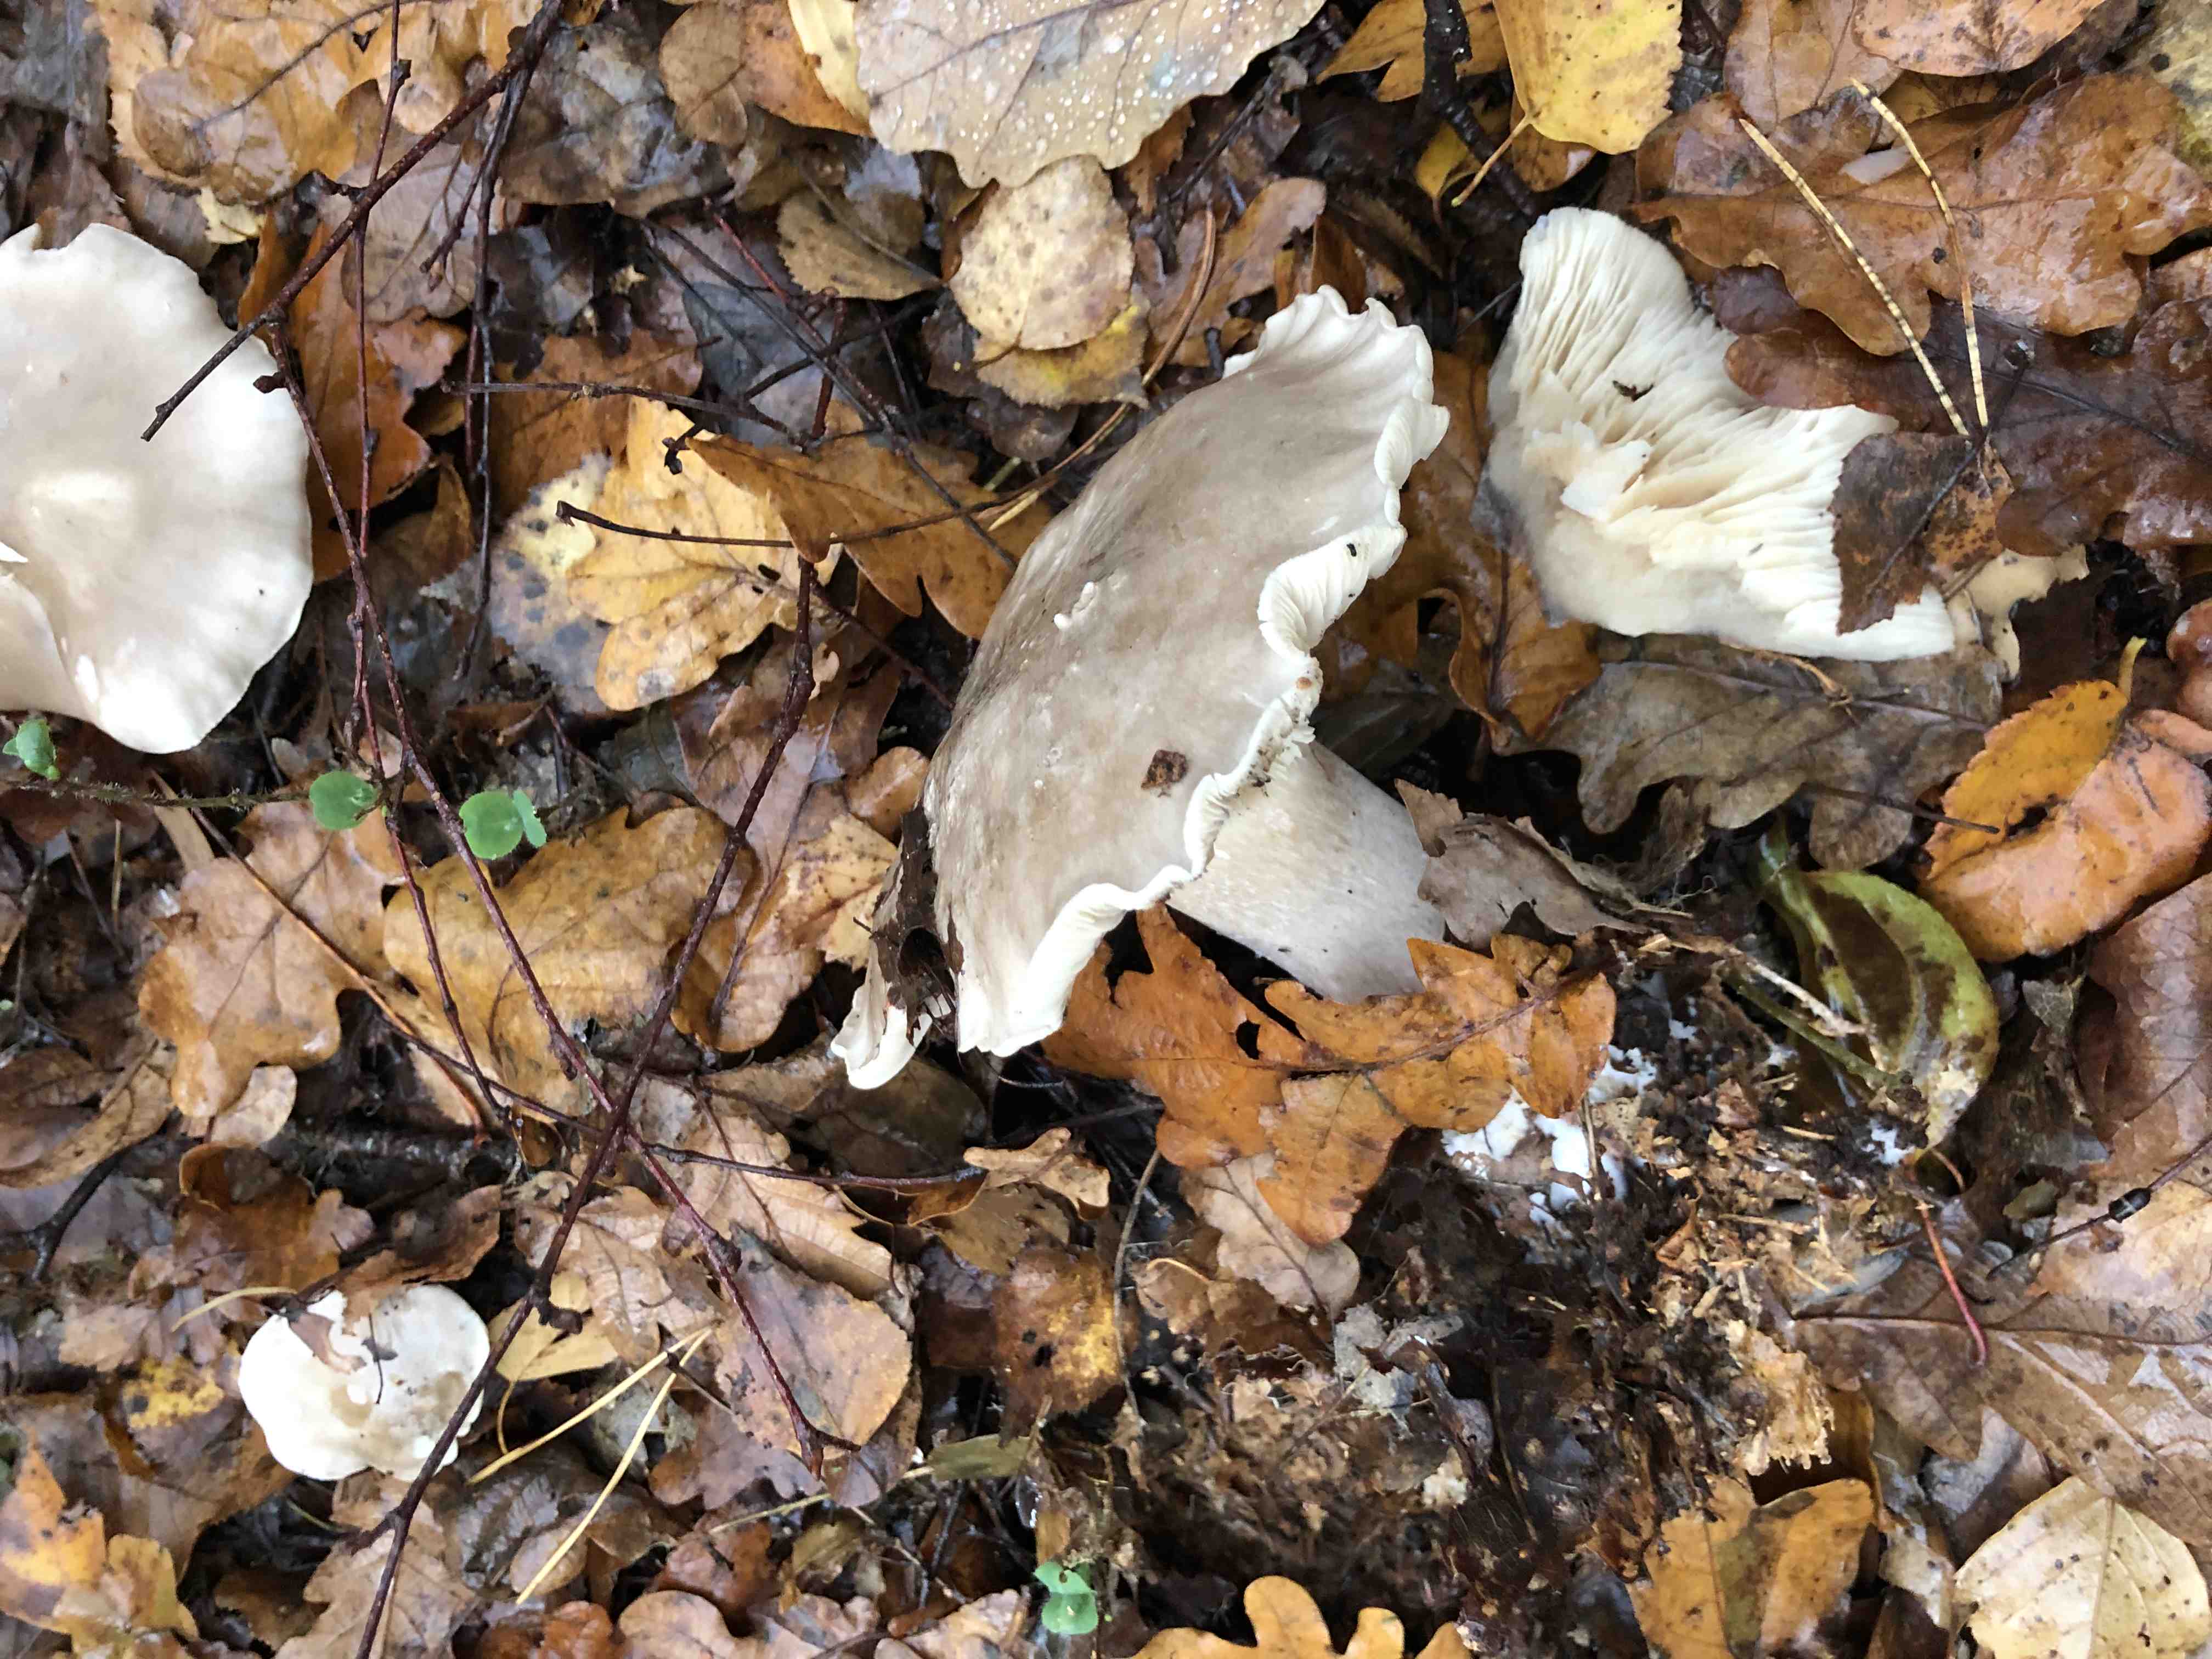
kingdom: Fungi
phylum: Basidiomycota
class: Agaricomycetes
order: Agaricales
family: Tricholomataceae
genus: Clitocybe
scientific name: Clitocybe nebularis
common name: tåge-tragthat
